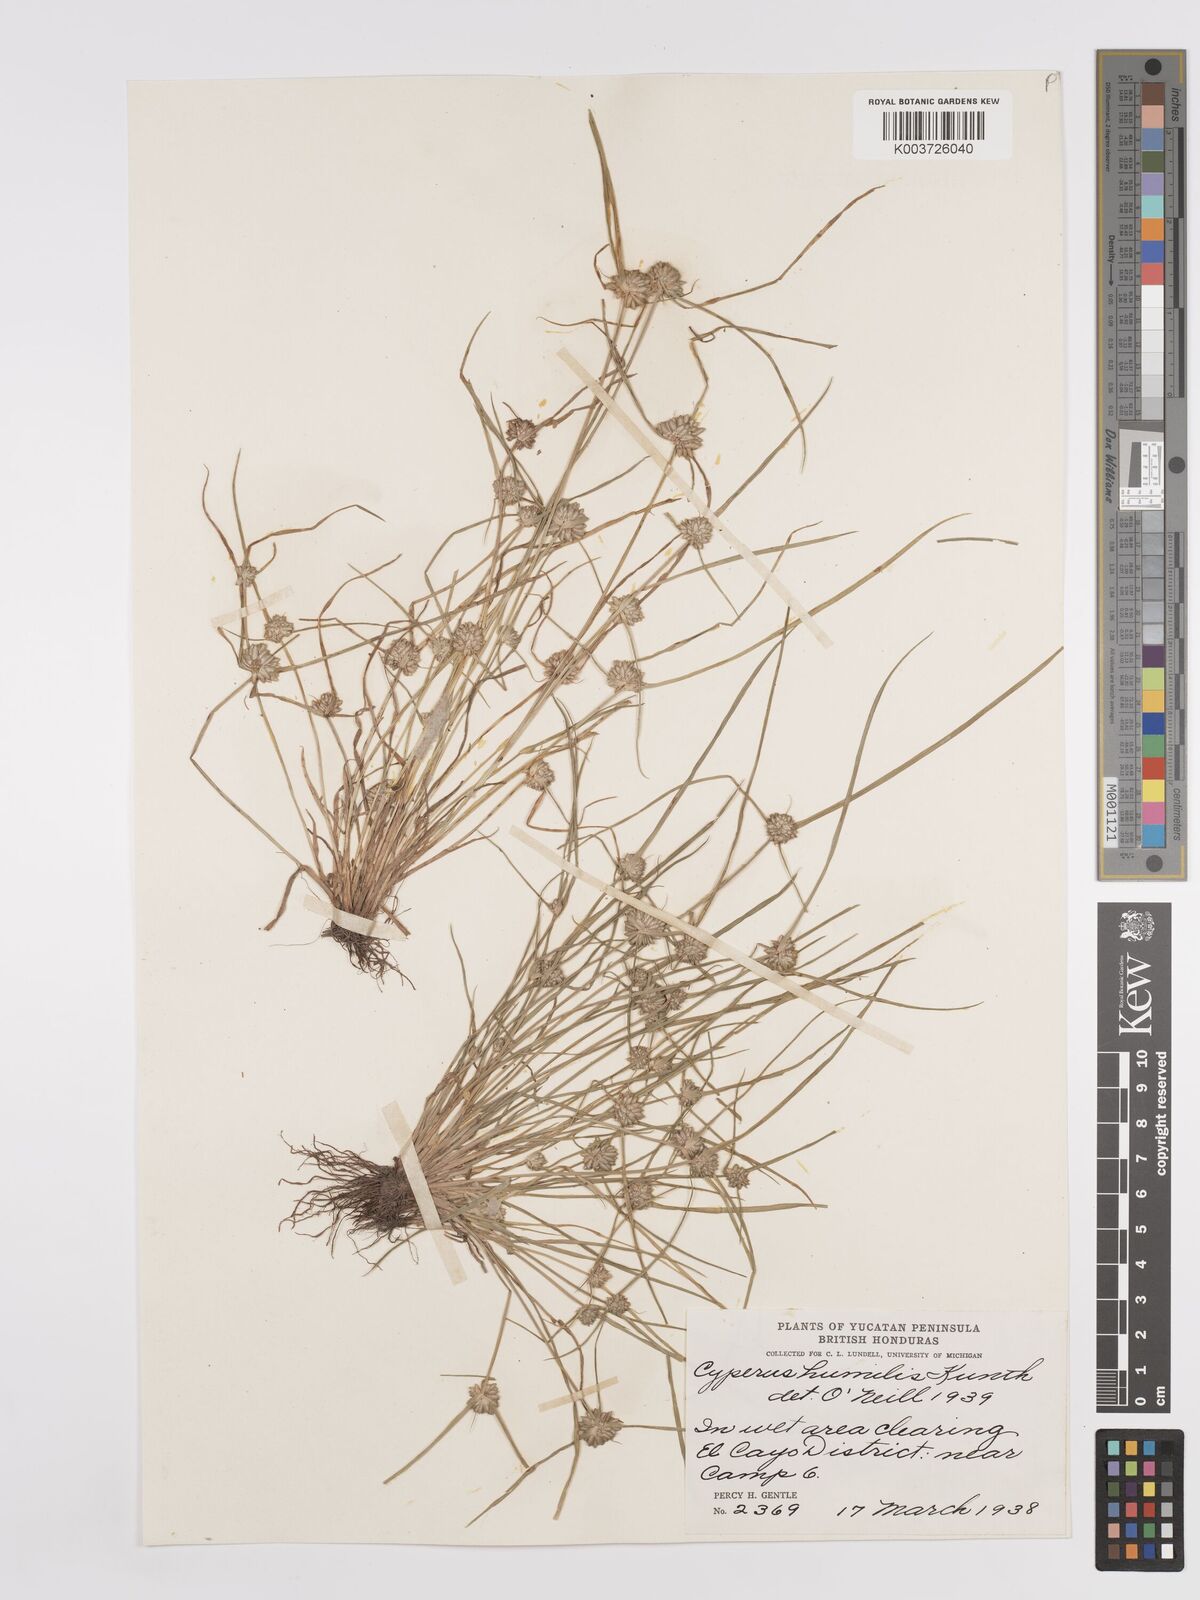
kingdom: Plantae
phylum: Tracheophyta
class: Liliopsida
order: Poales
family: Cyperaceae
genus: Cyperus
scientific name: Cyperus humilis
